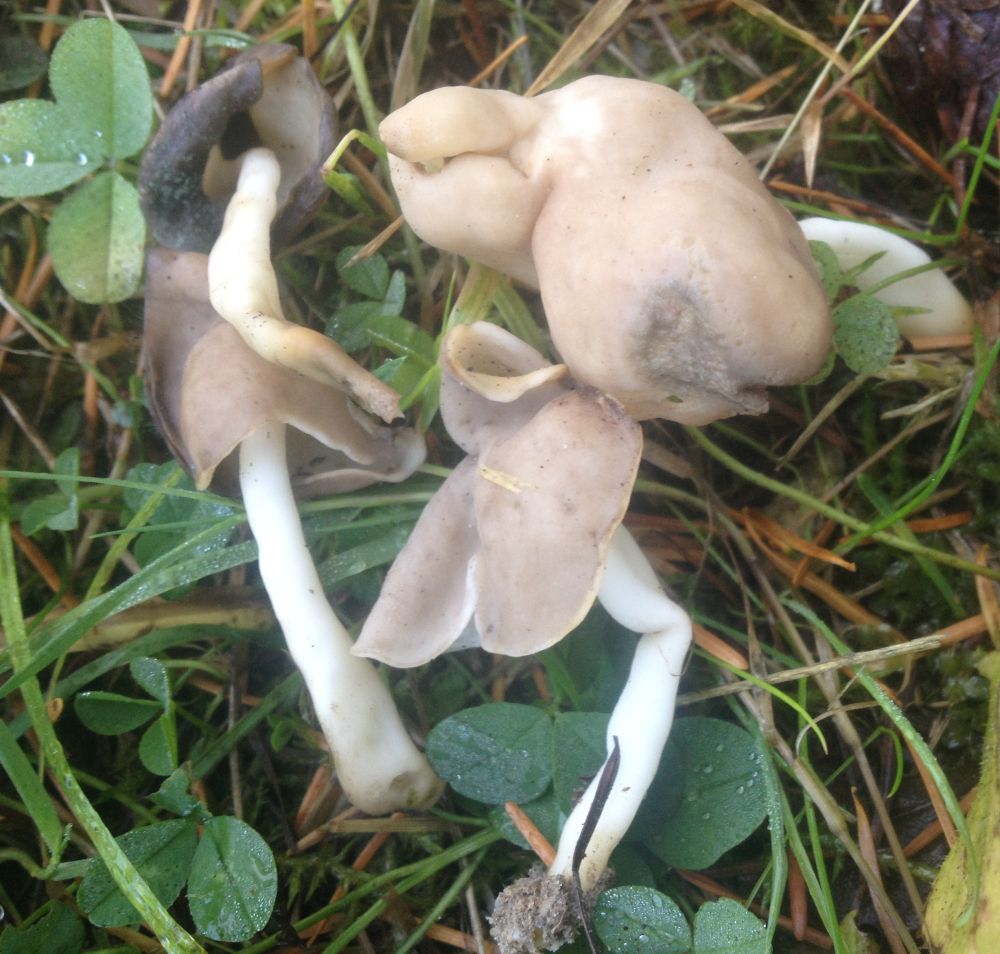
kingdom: Fungi
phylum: Ascomycota
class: Pezizomycetes
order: Pezizales
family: Helvellaceae
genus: Helvella
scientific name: Helvella elastica
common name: elastik-foldhat
